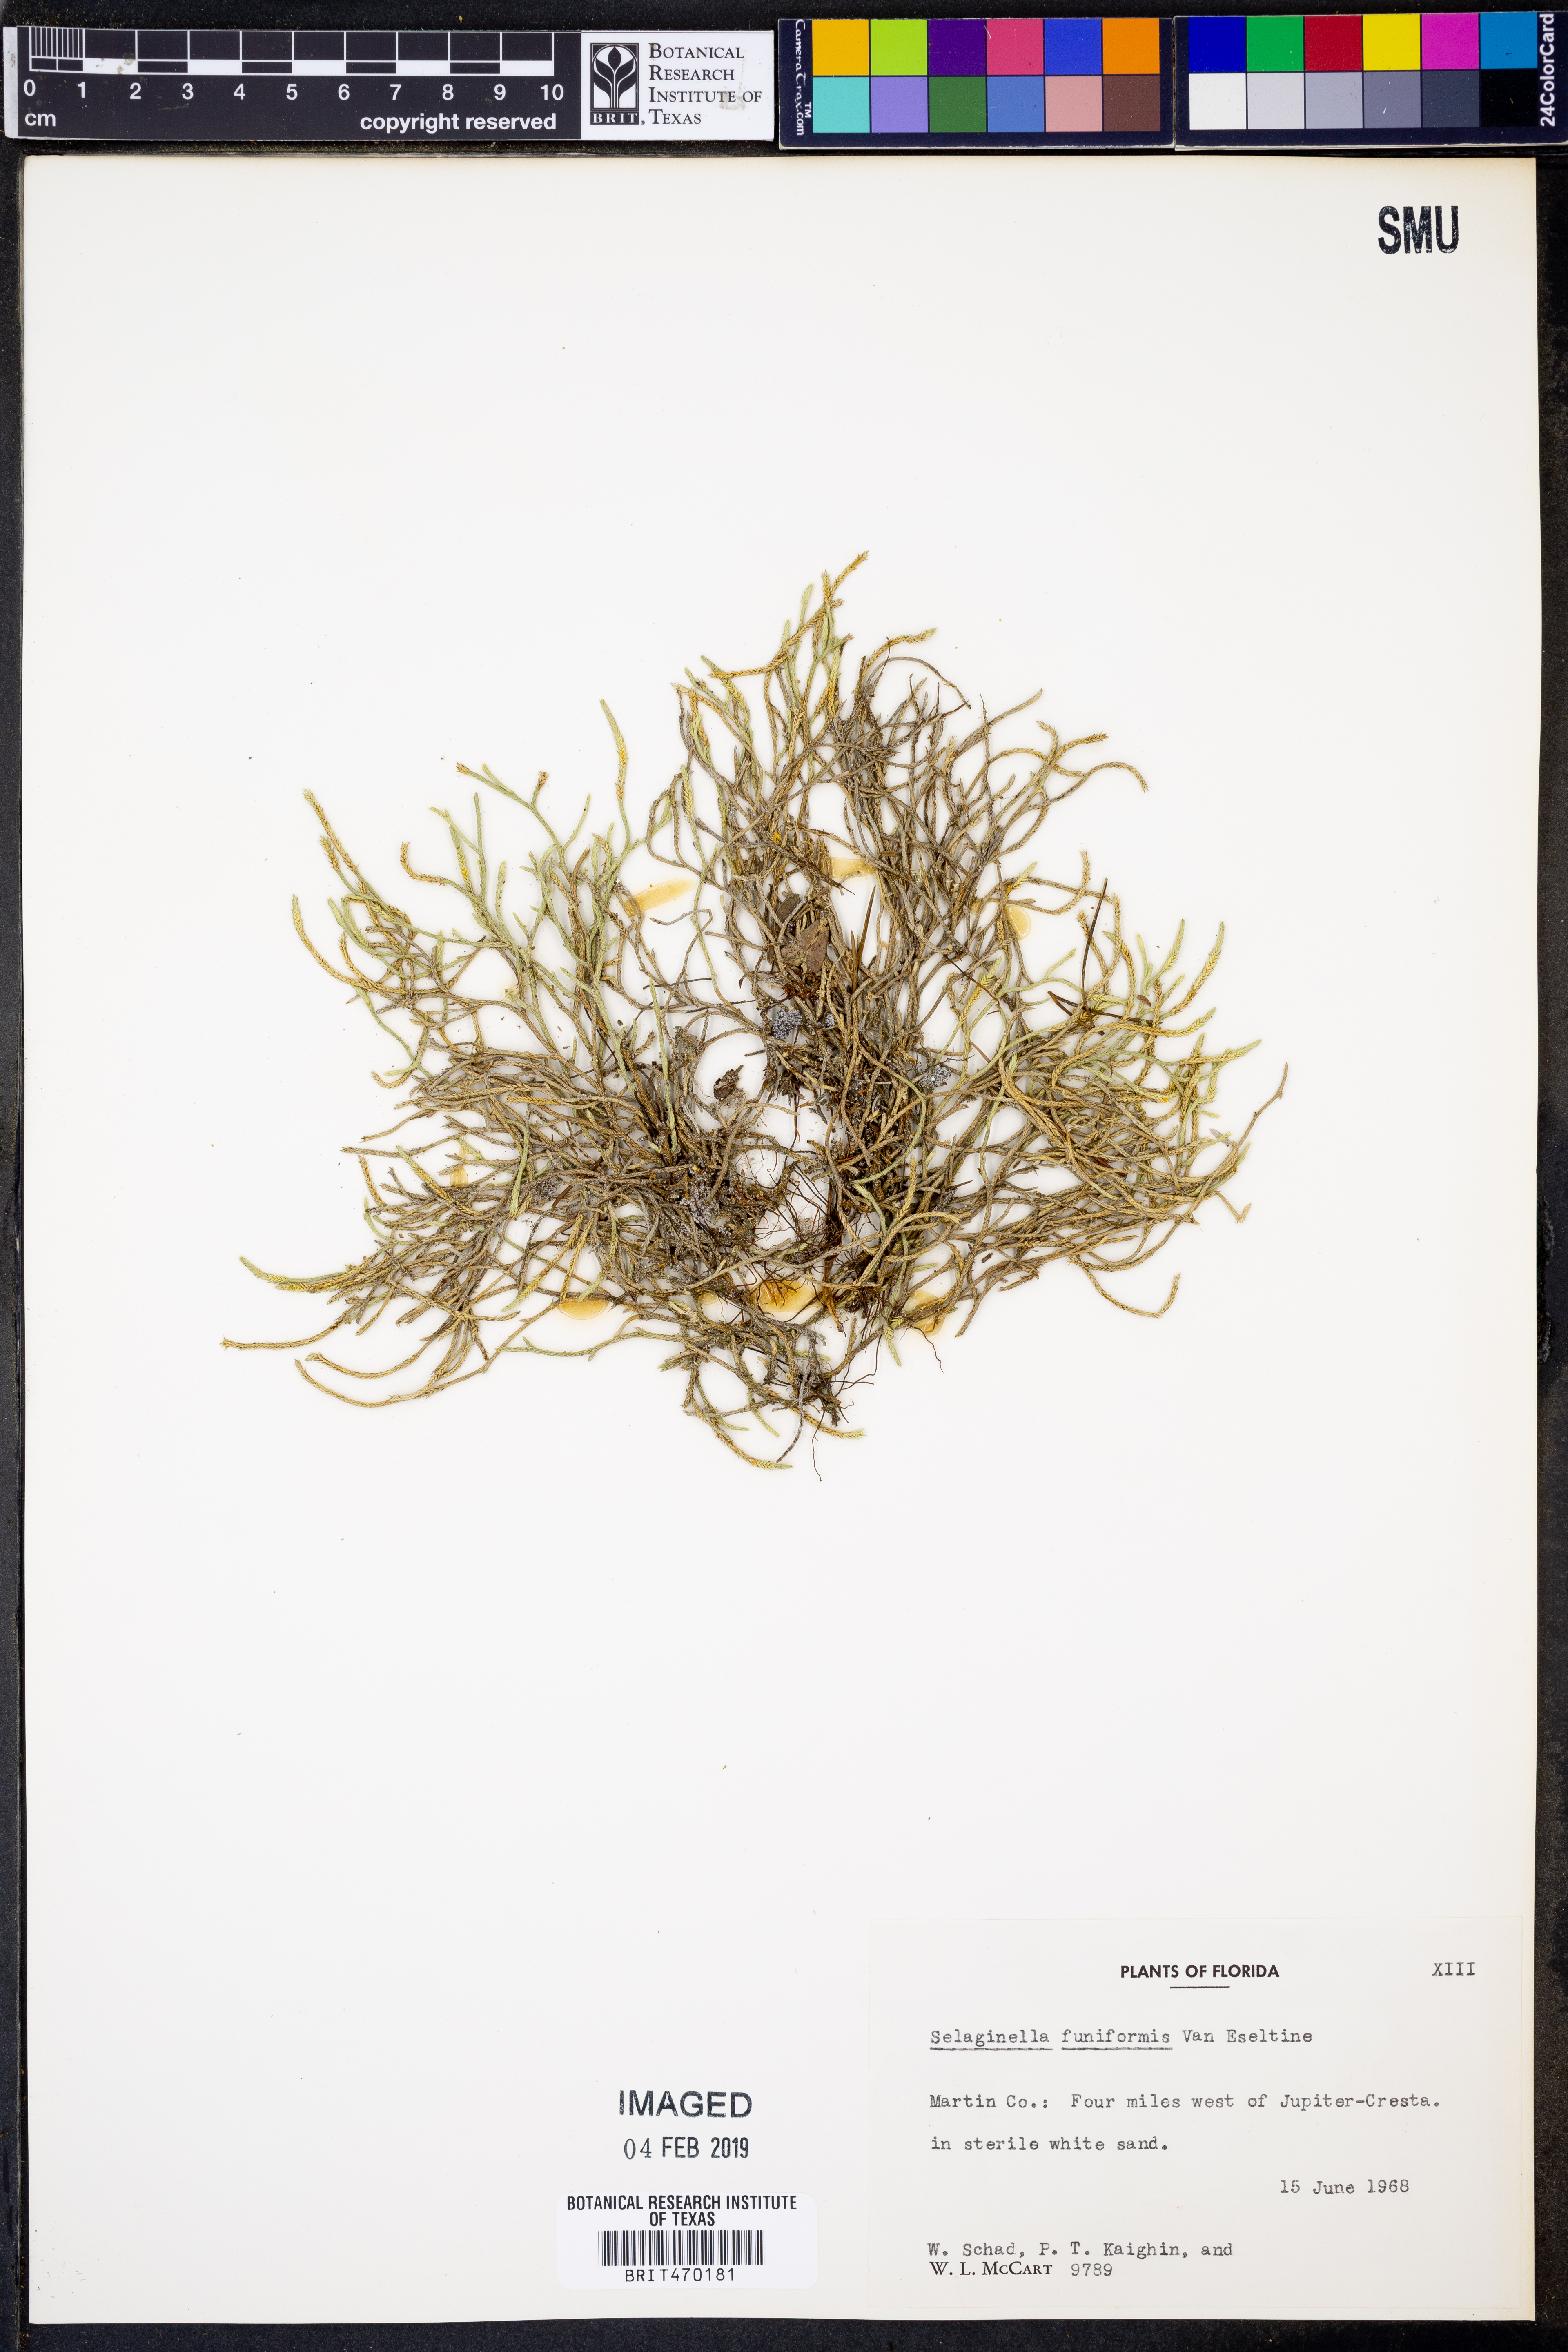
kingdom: Plantae
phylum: Tracheophyta
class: Lycopodiopsida
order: Selaginellales
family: Selaginellaceae
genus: Selaginella
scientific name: Selaginella acanthonota
